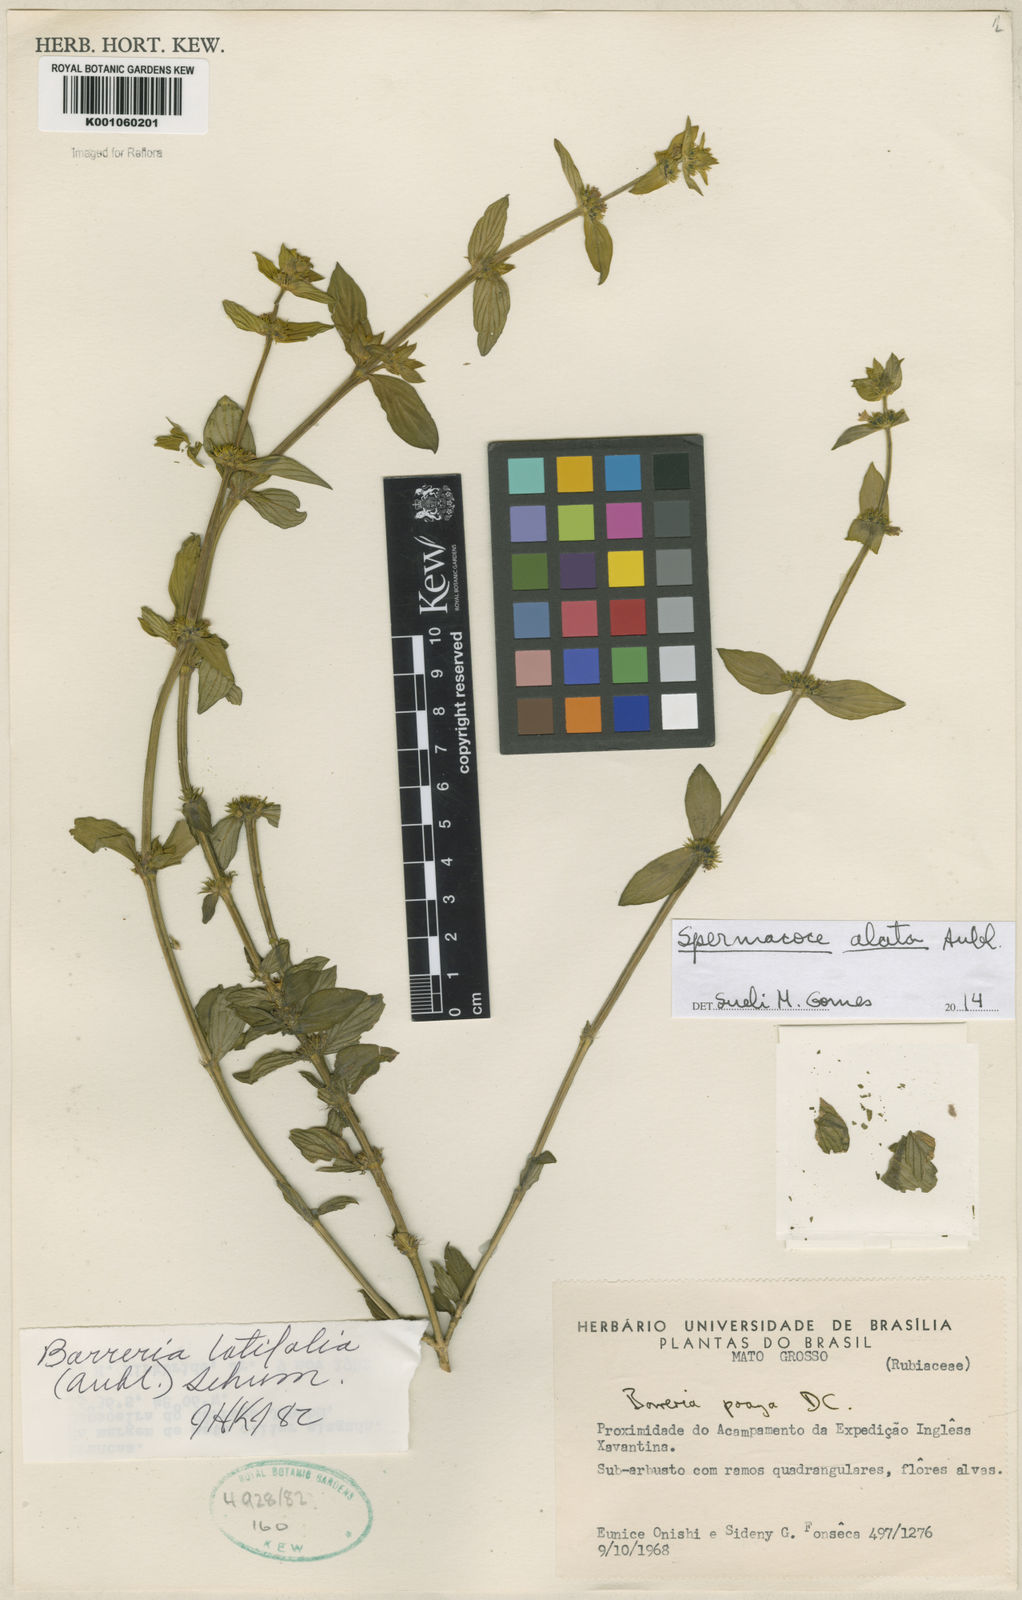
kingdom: Plantae
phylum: Tracheophyta
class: Magnoliopsida
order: Gentianales
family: Rubiaceae
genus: Spermacoce
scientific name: Spermacoce
